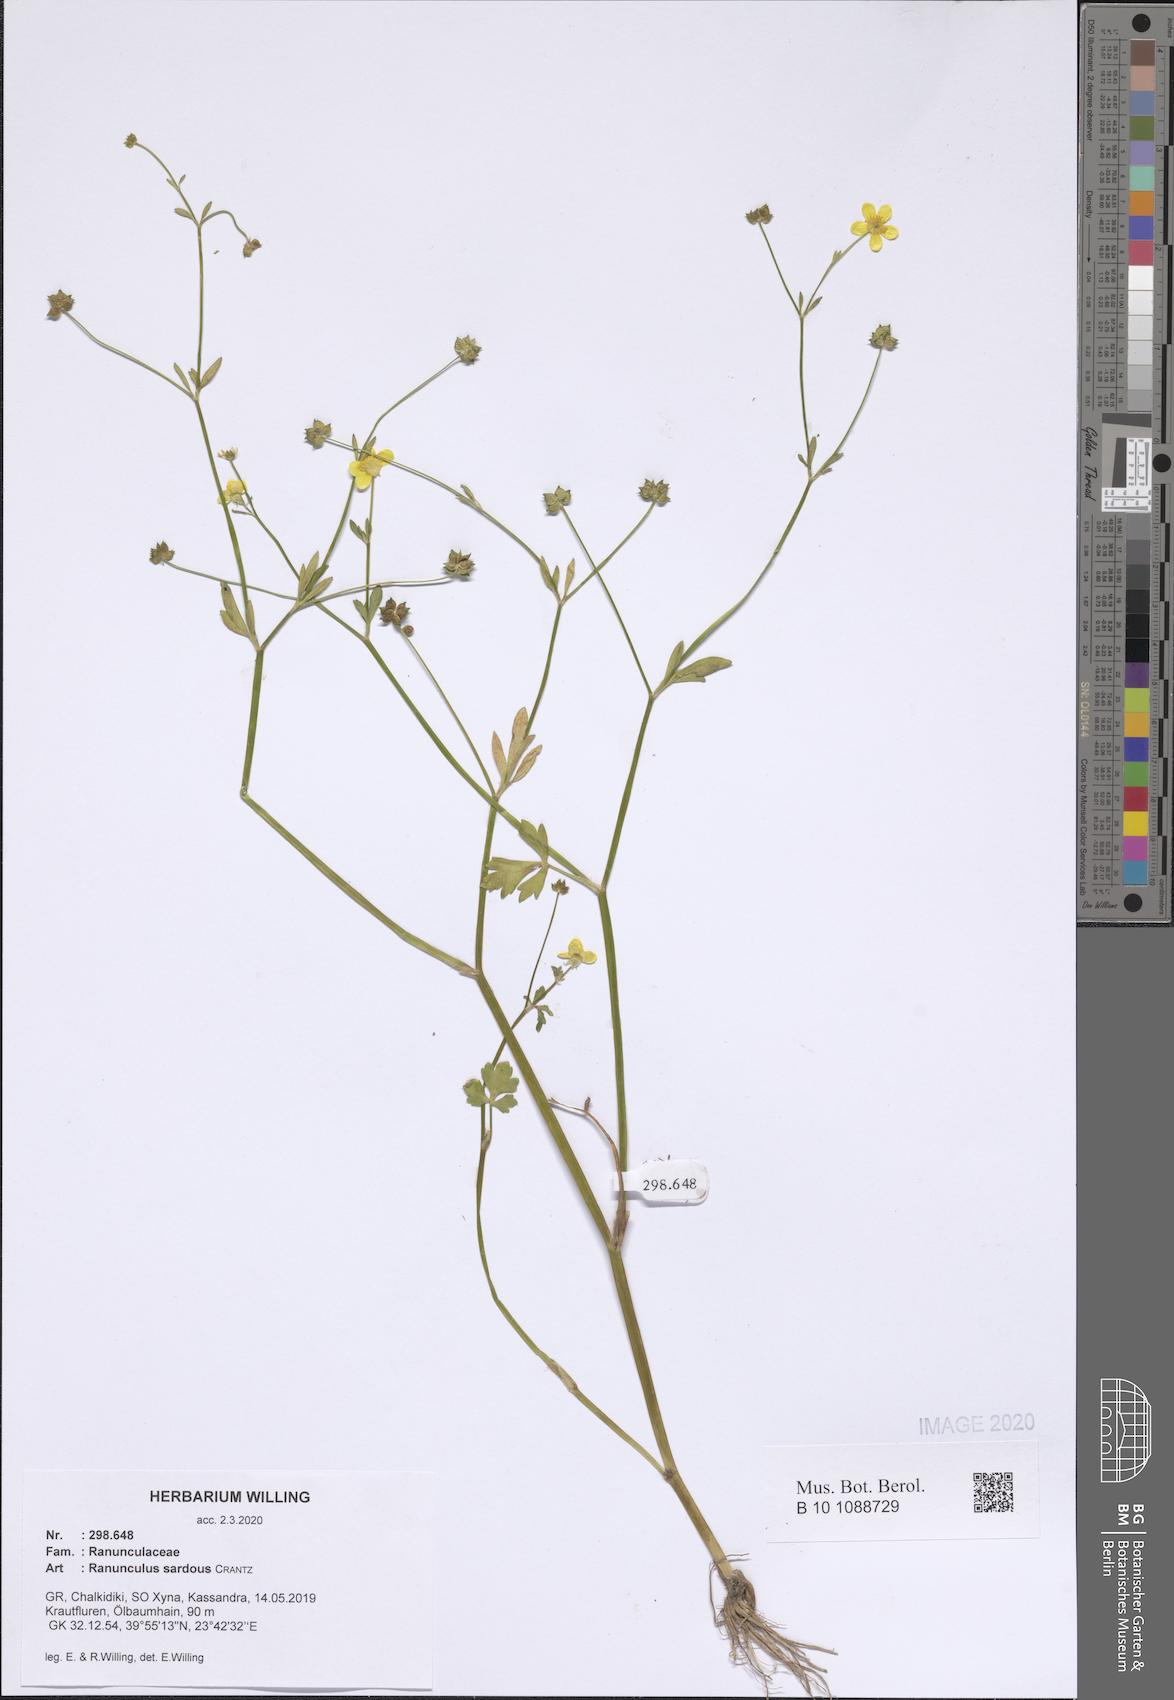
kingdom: Plantae
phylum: Tracheophyta
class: Magnoliopsida
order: Ranunculales
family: Ranunculaceae
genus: Ranunculus
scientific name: Ranunculus sardous
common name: Hairy buttercup
